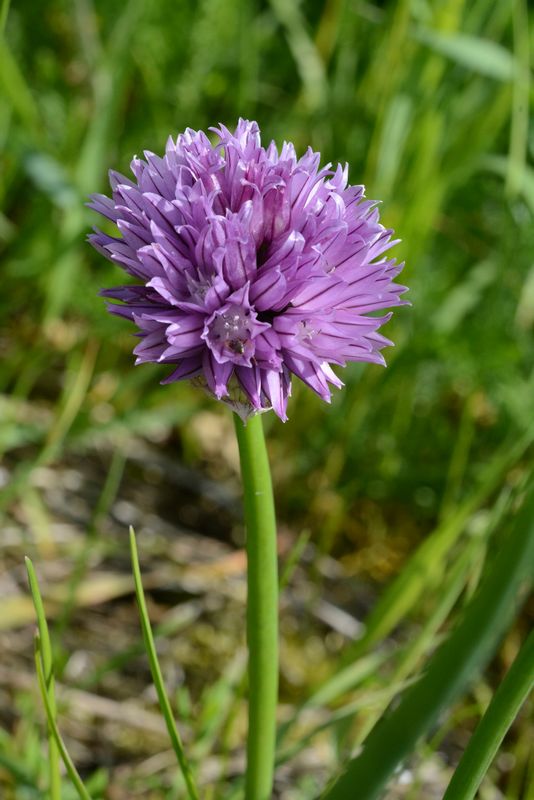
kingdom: Plantae
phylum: Tracheophyta
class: Liliopsida
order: Asparagales
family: Amaryllidaceae
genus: Allium
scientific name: Allium schoenoprasum
